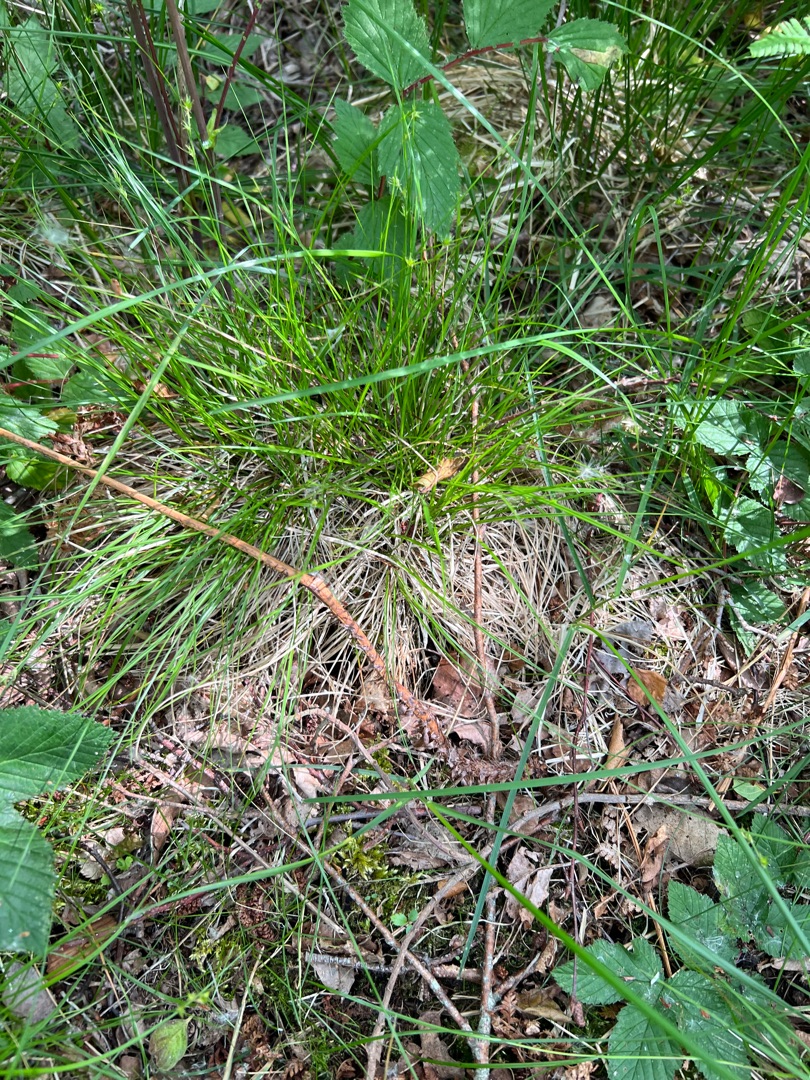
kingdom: Plantae
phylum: Tracheophyta
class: Liliopsida
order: Poales
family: Cyperaceae
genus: Carex
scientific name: Carex echinata
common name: Stjerne-star
